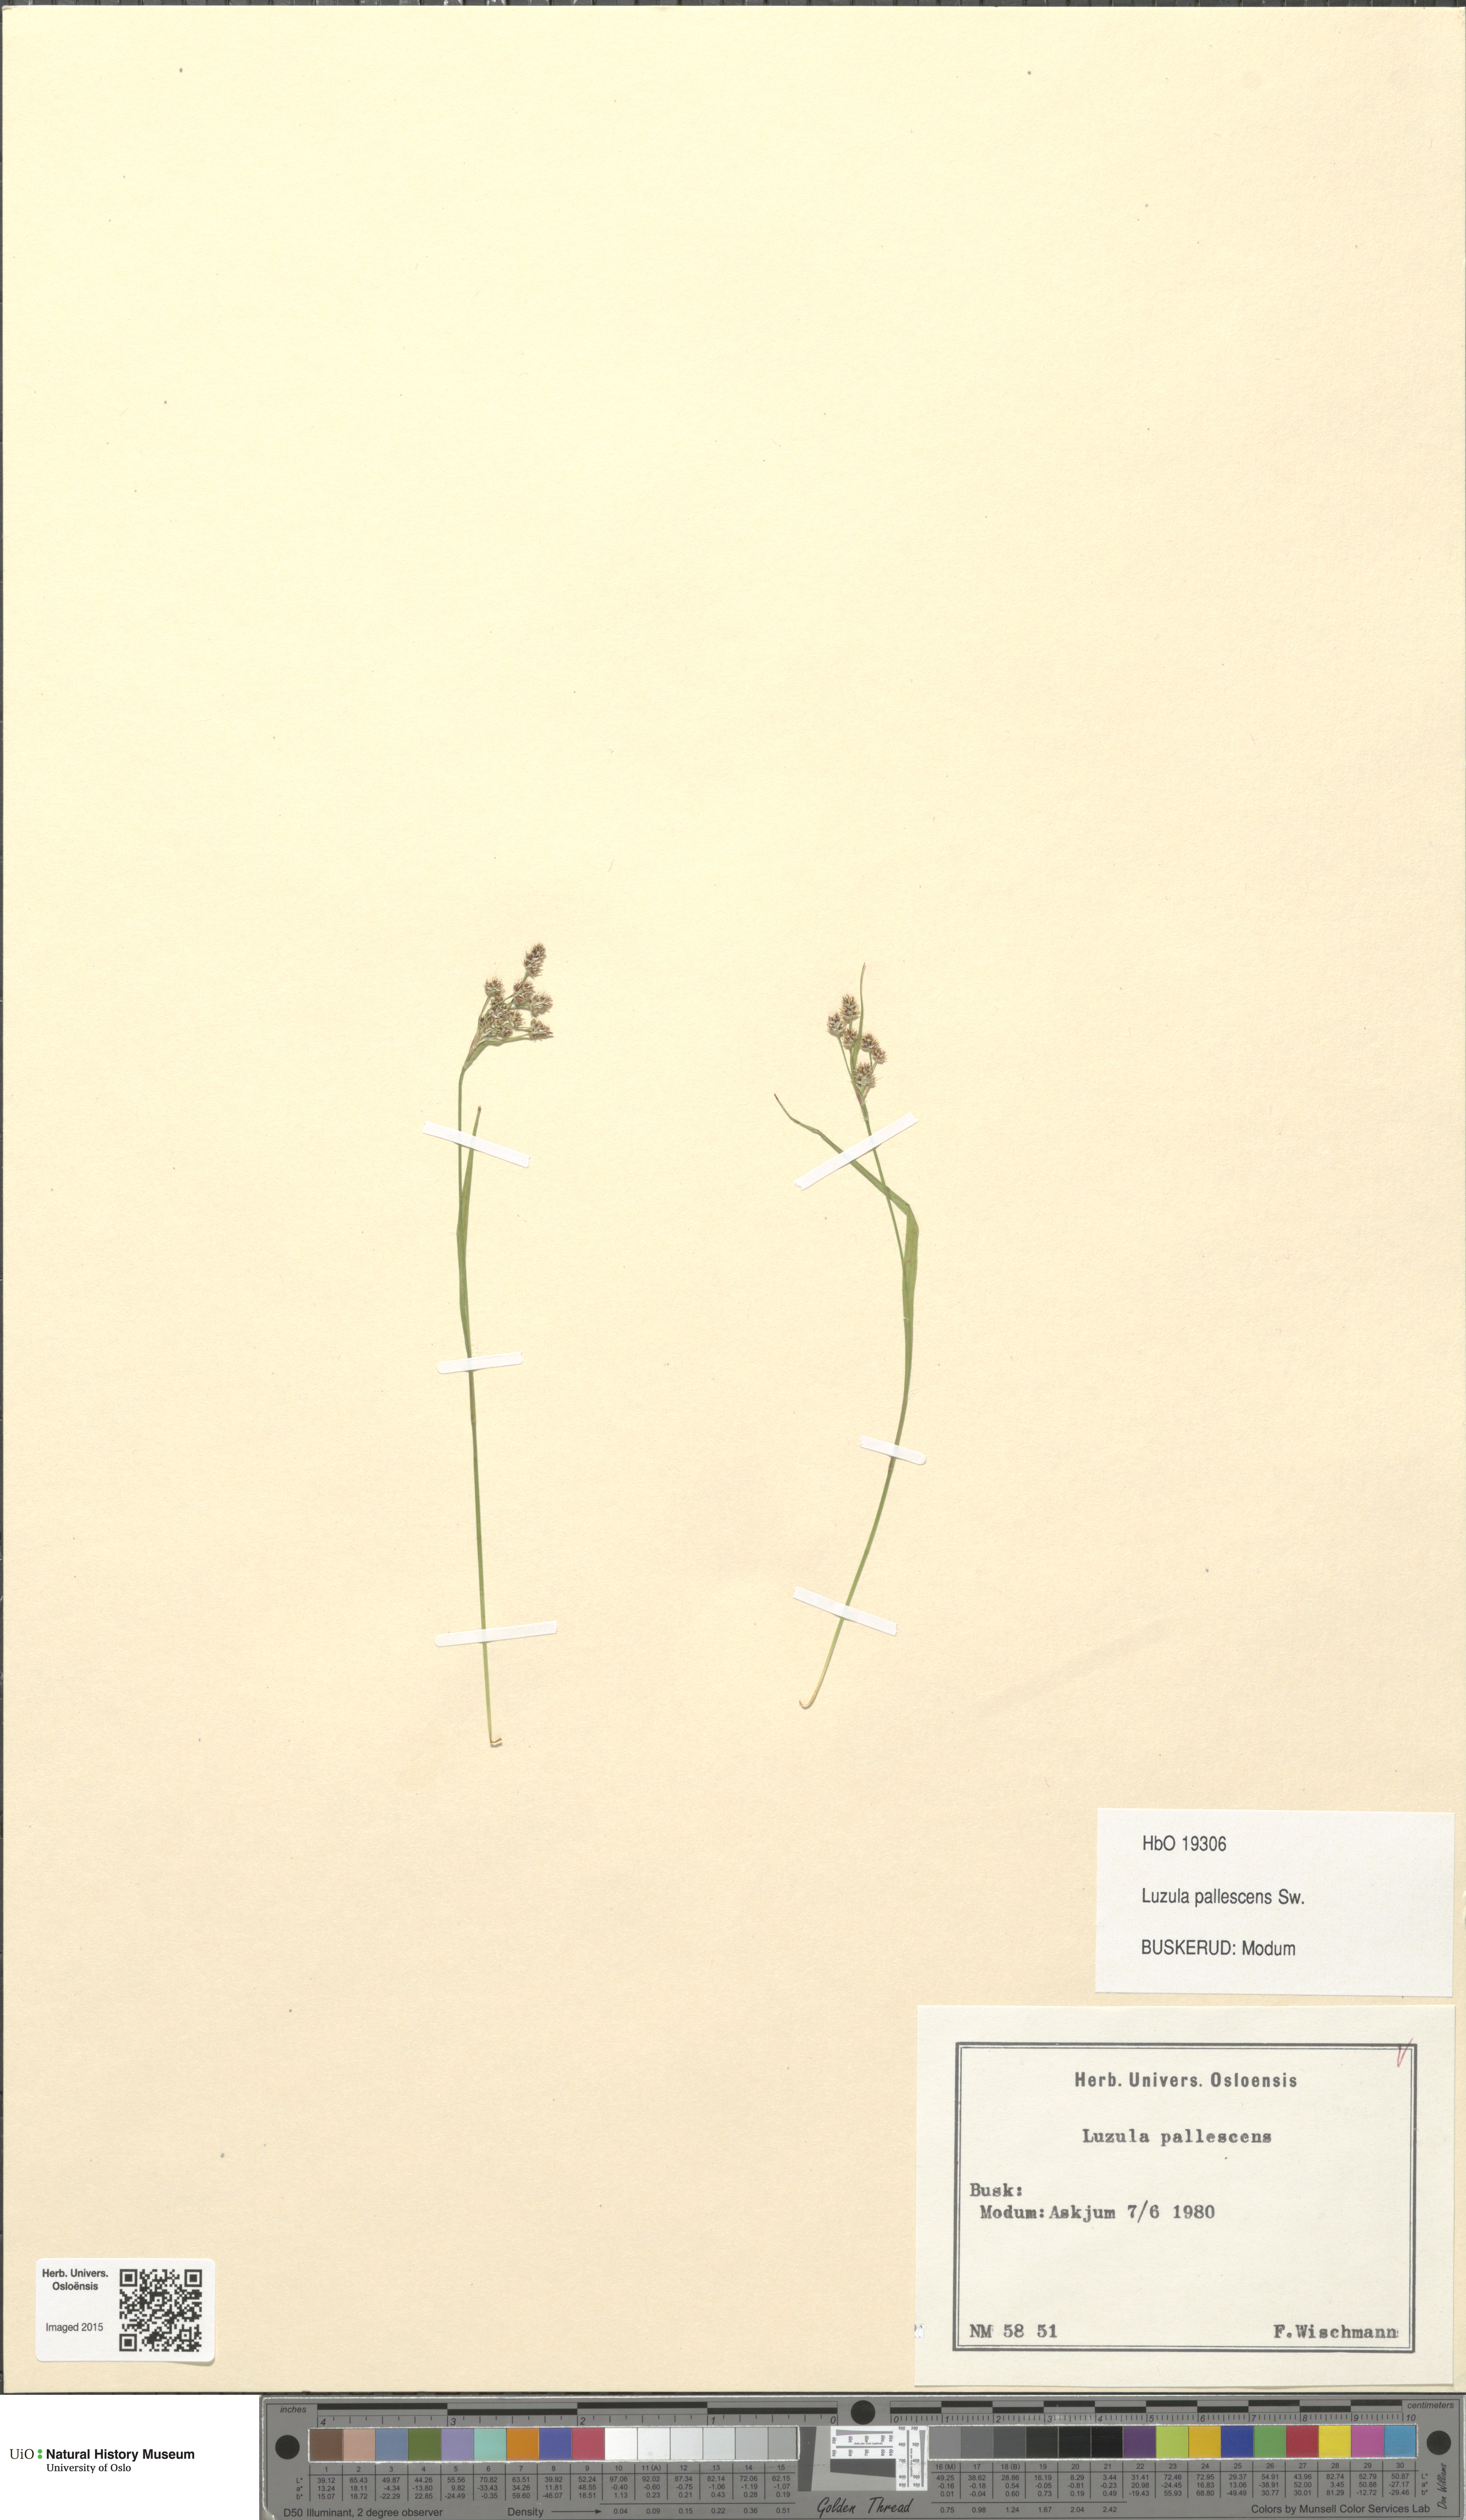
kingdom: Plantae
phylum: Tracheophyta
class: Liliopsida
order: Poales
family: Juncaceae
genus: Luzula
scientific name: Luzula pallescens
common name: Fen wood-rush
